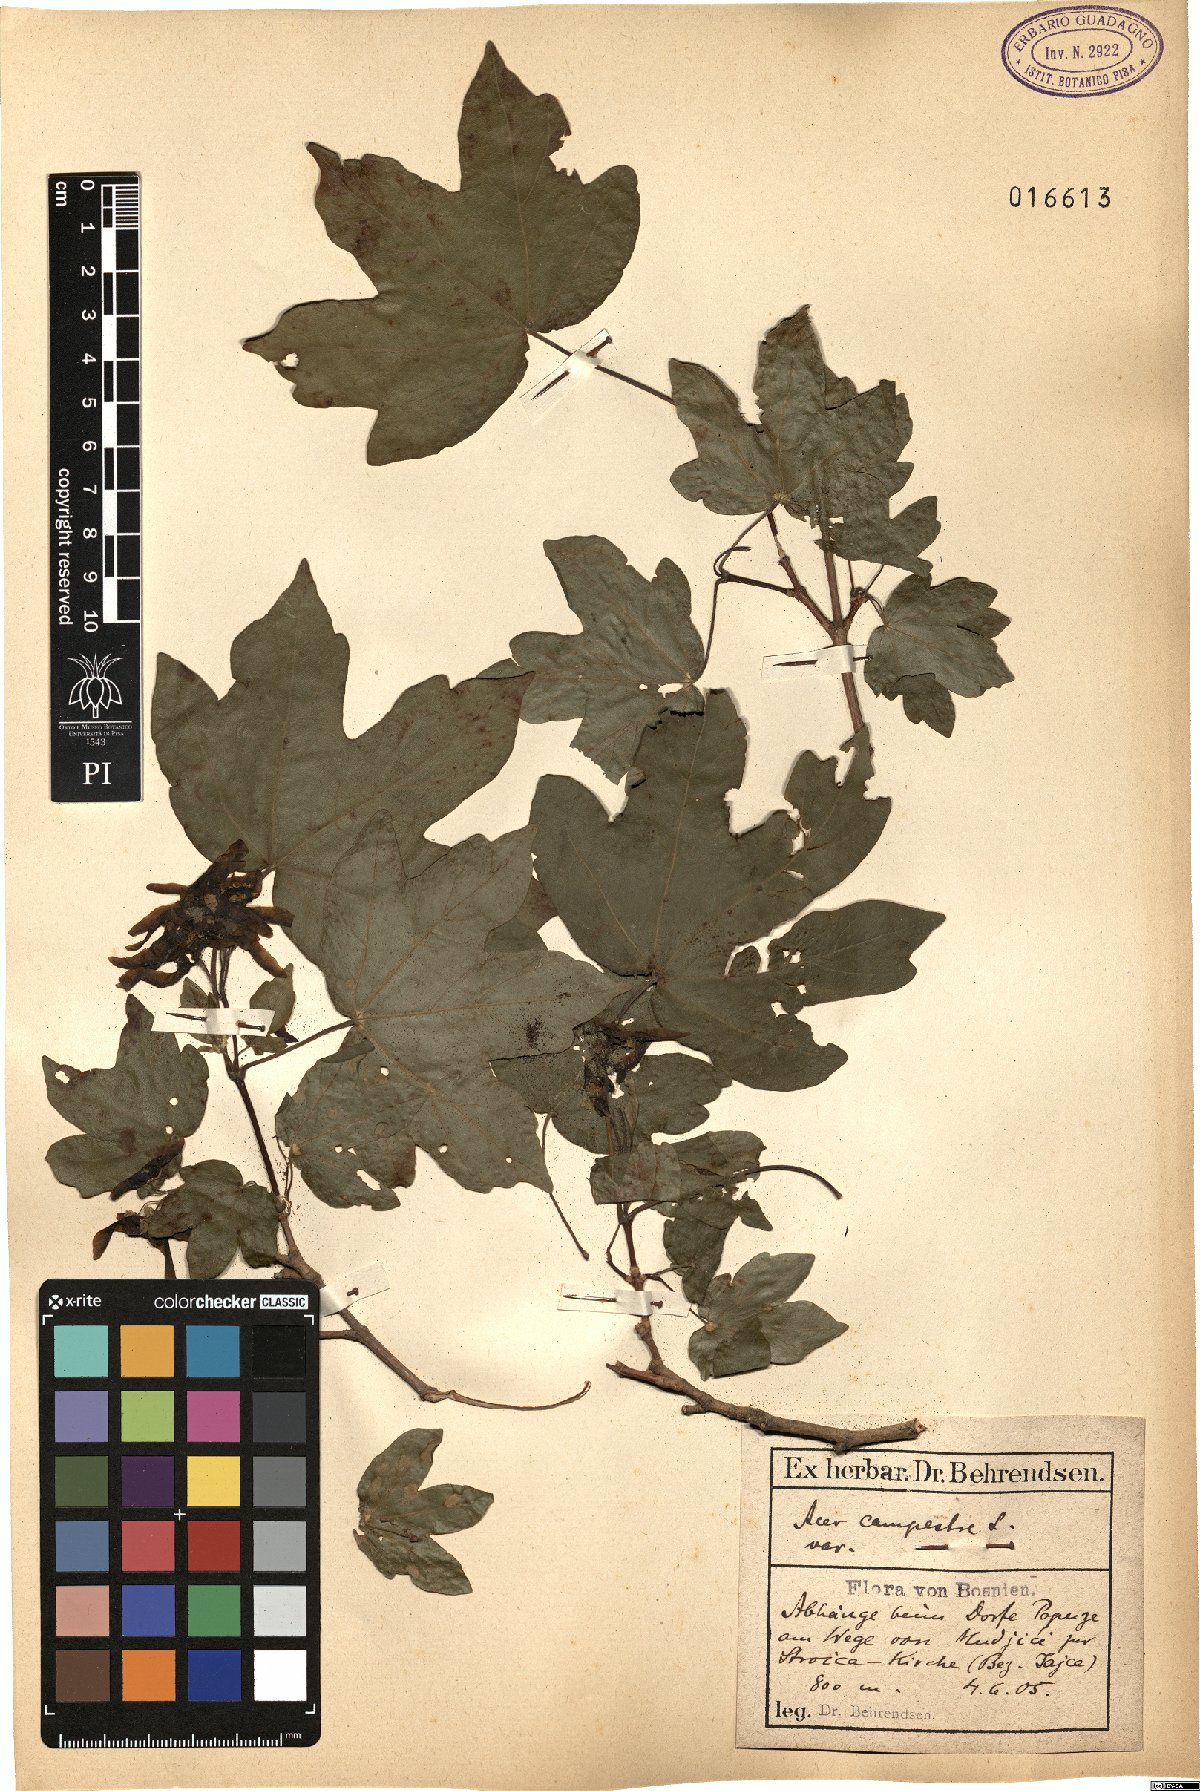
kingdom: Plantae
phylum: Tracheophyta
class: Magnoliopsida
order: Sapindales
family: Sapindaceae
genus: Acer
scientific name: Acer campestre
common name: Field maple
